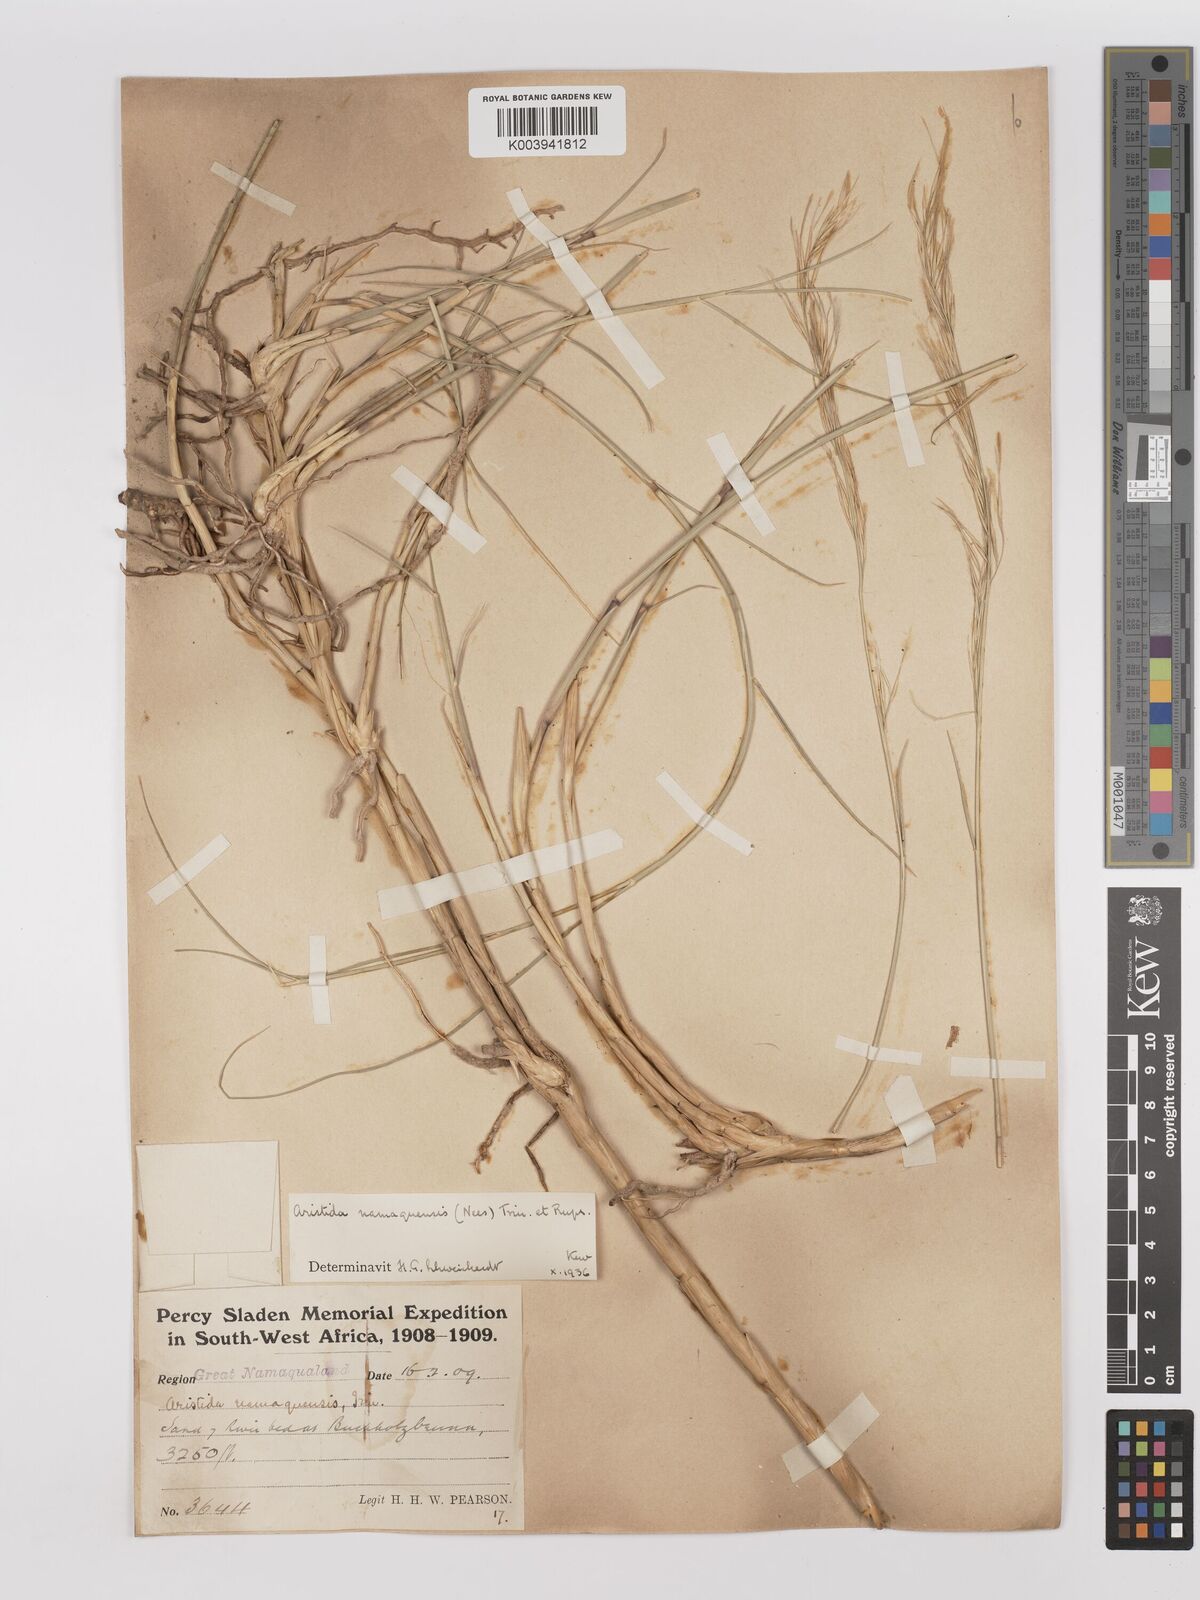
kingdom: Plantae
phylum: Tracheophyta
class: Liliopsida
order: Poales
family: Poaceae
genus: Stipagrostis
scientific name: Stipagrostis namaquensis
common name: River bushman grass
